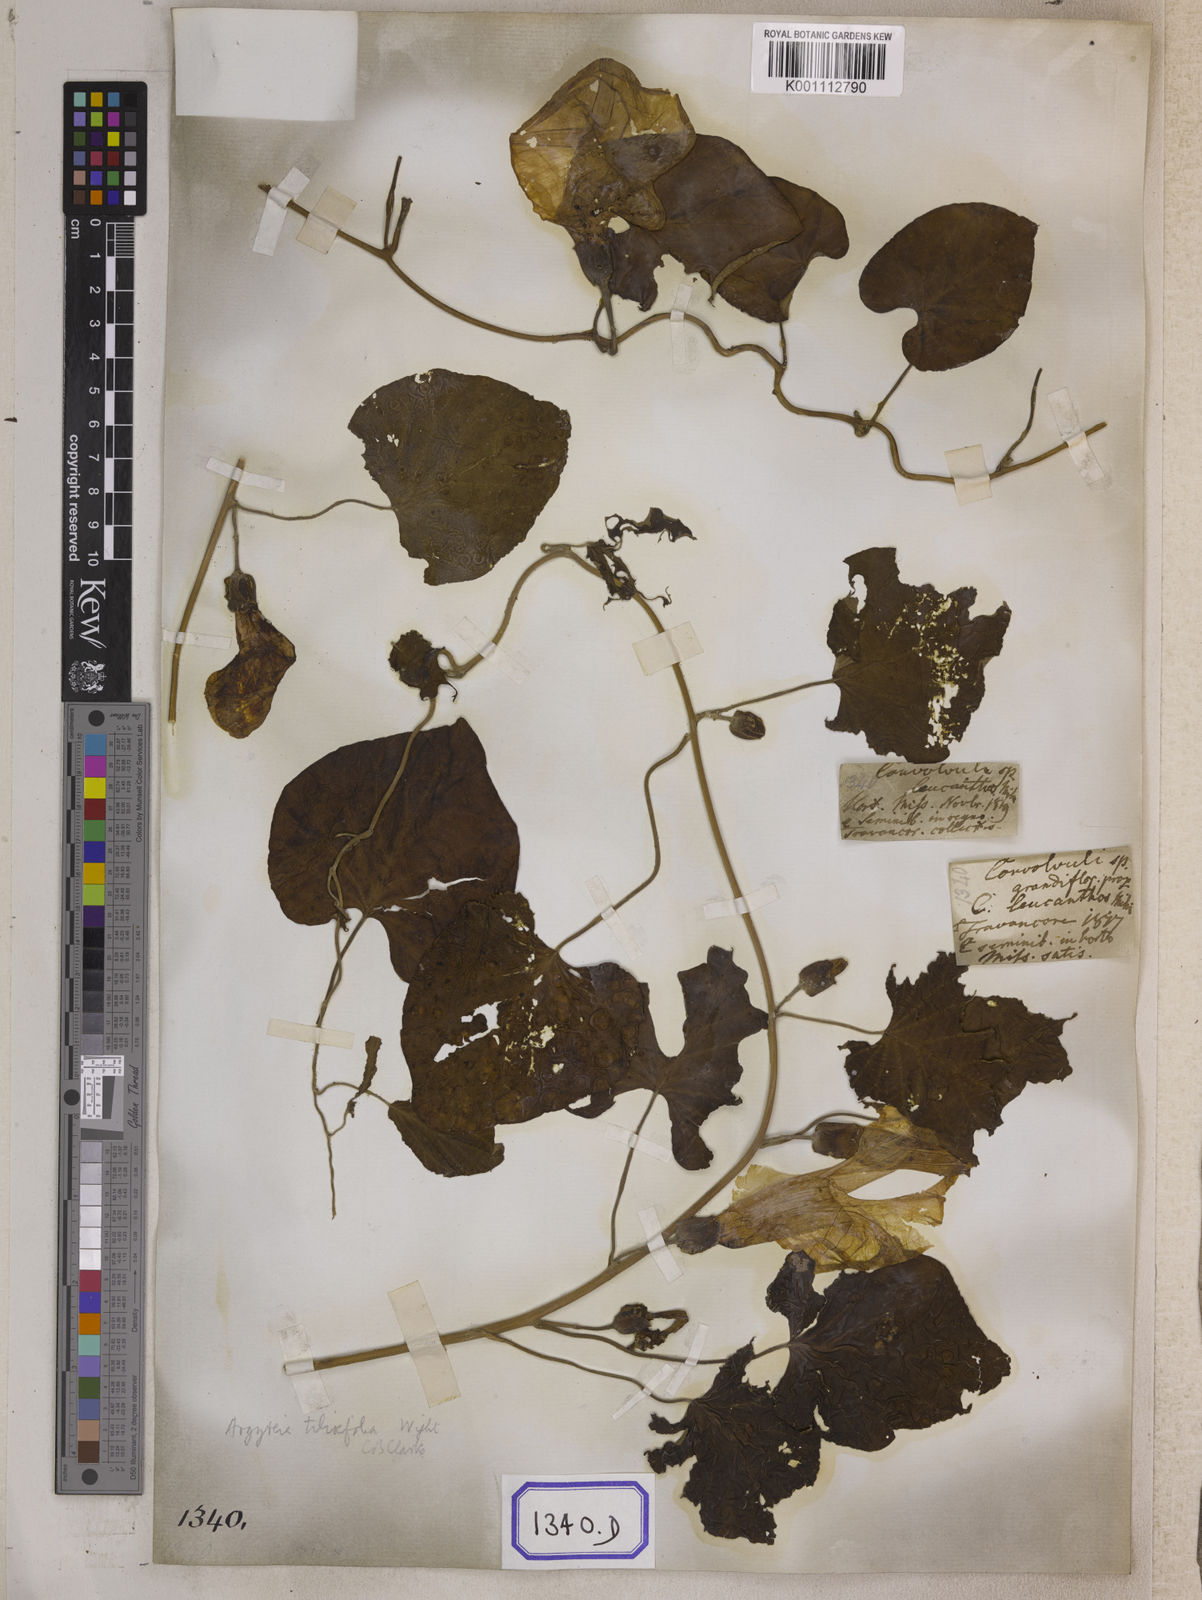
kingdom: Plantae
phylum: Tracheophyta
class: Magnoliopsida
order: Solanales
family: Convolvulaceae
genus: Stictocardia
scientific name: Stictocardia tiliifolia
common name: Spottedheart
